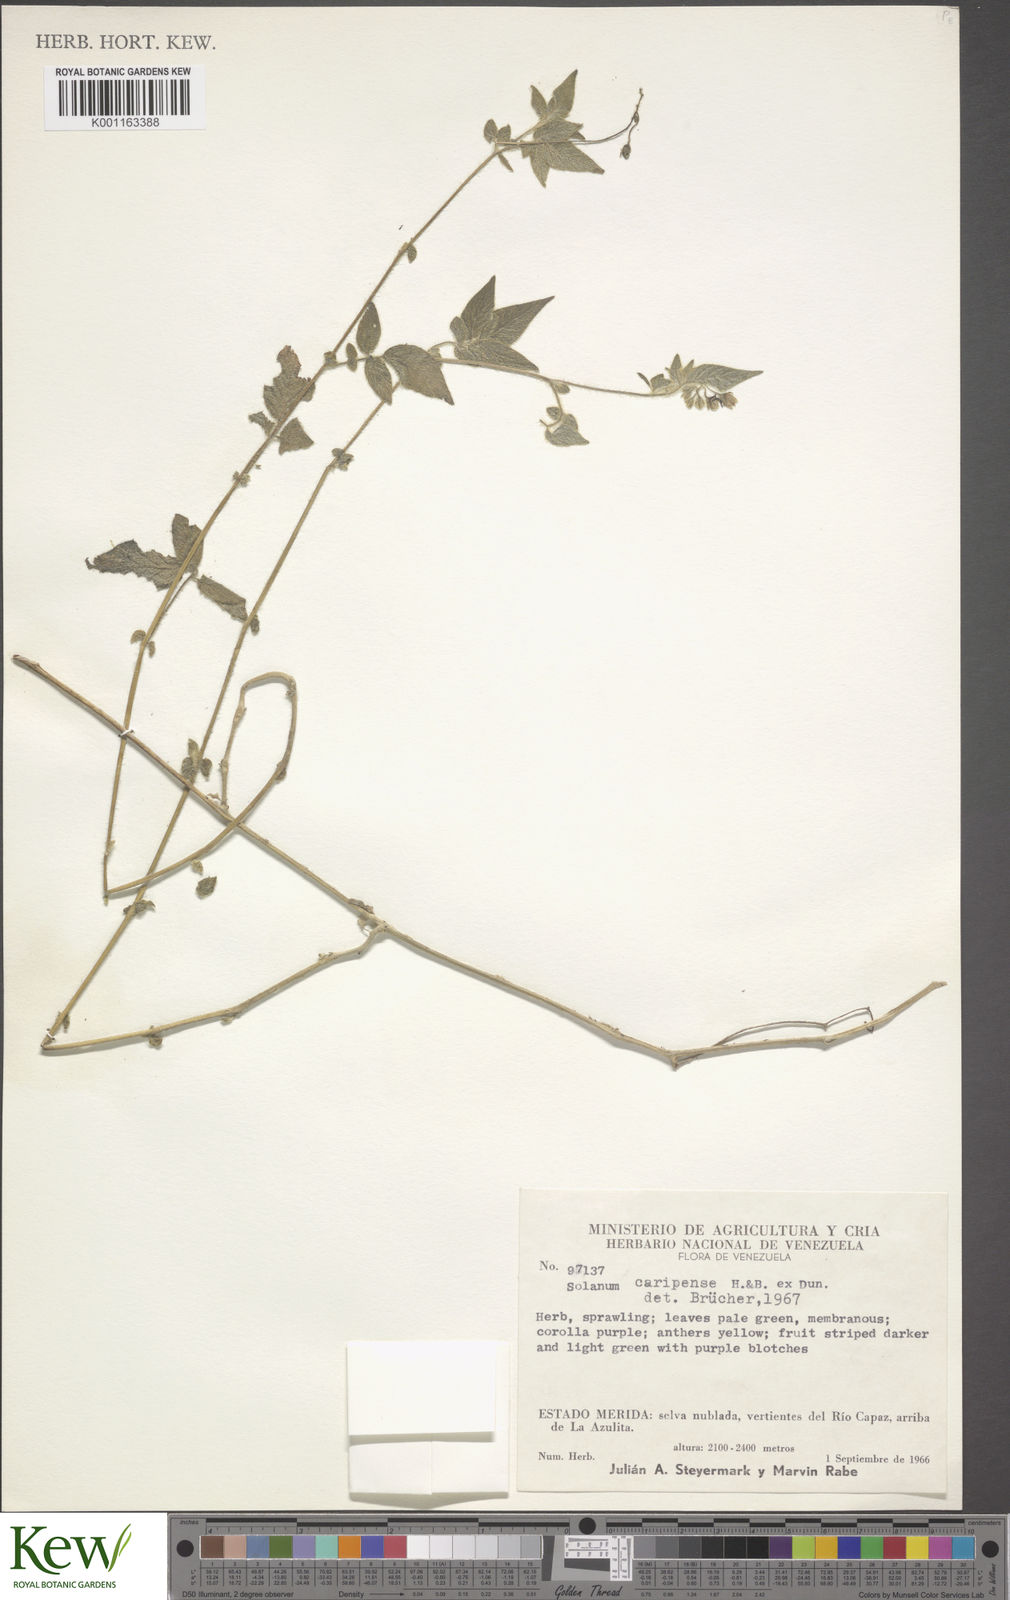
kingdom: Plantae
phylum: Tracheophyta
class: Magnoliopsida
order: Solanales
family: Solanaceae
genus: Solanum
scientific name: Solanum caripense
